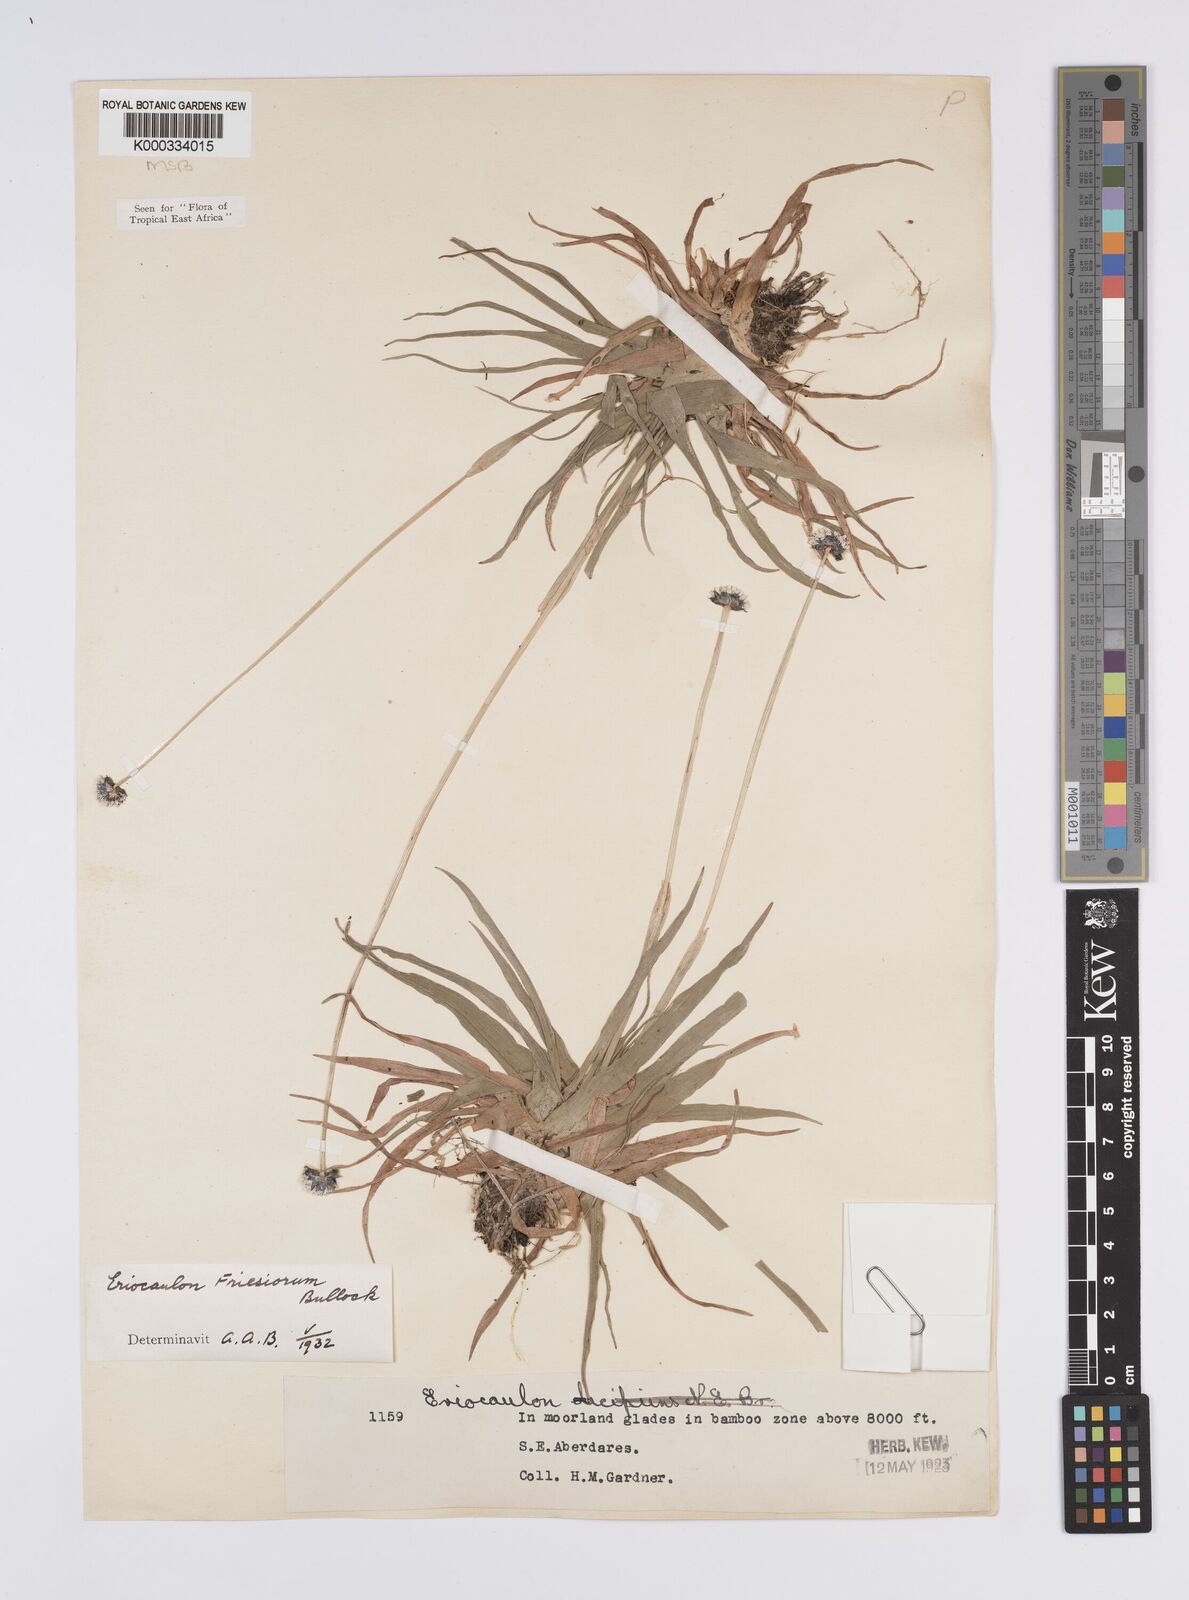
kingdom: Plantae
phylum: Tracheophyta
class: Liliopsida
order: Poales
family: Eriocaulaceae
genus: Eriocaulon
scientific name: Eriocaulon
